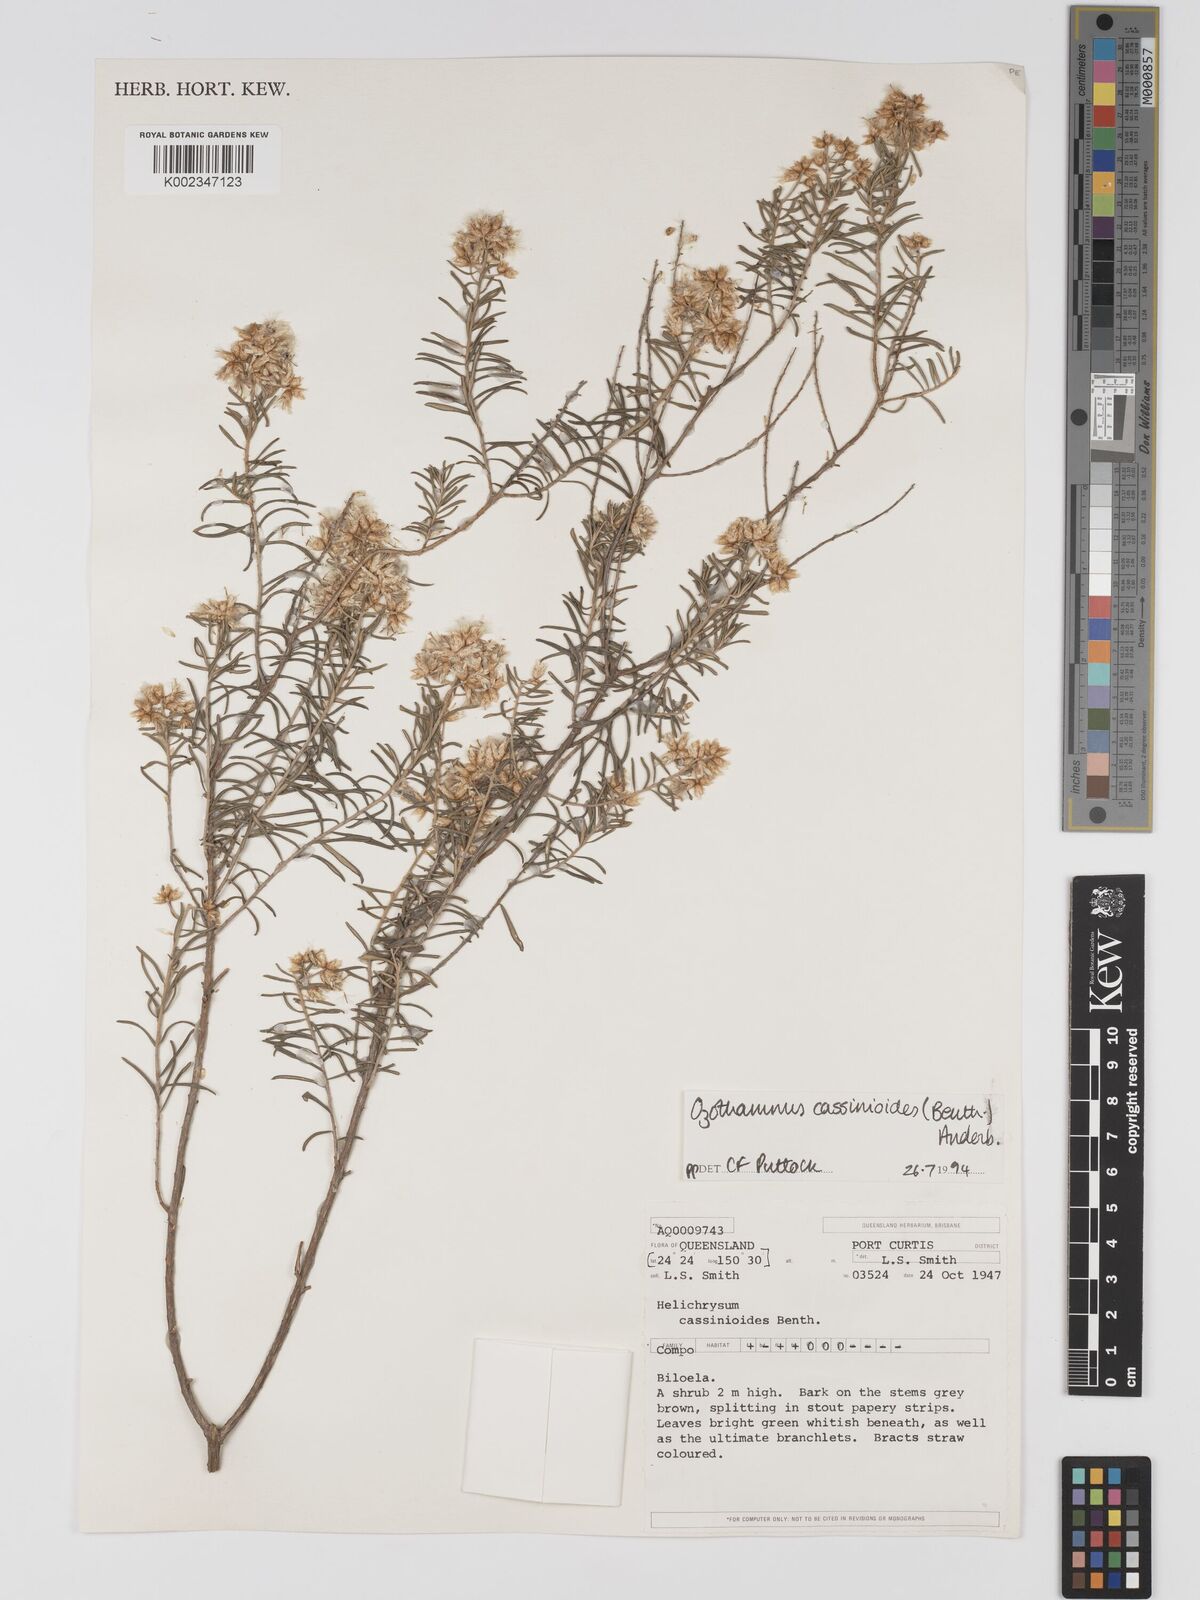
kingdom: Plantae
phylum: Tracheophyta
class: Magnoliopsida
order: Asterales
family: Asteraceae
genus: Ozothamnus
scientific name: Ozothamnus cassinioides
